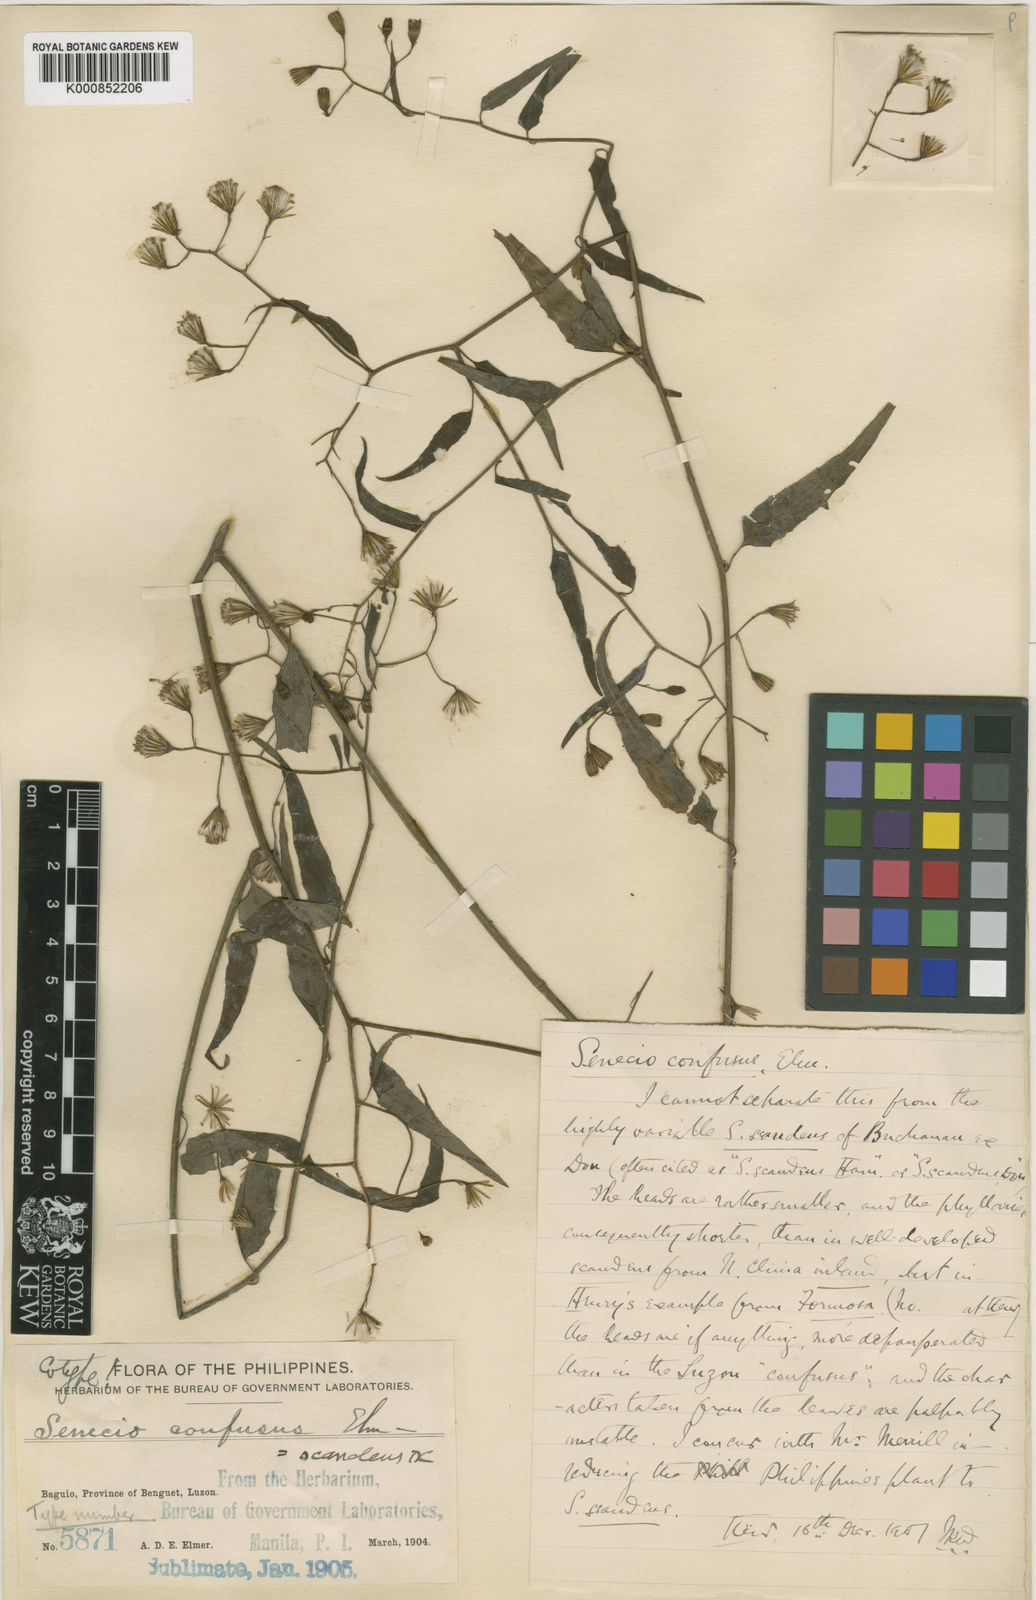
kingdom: Plantae
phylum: Tracheophyta
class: Magnoliopsida
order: Asterales
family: Asteraceae
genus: Pseudogynoxys
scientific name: Pseudogynoxys chenopodioides
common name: Mexican flamevine
